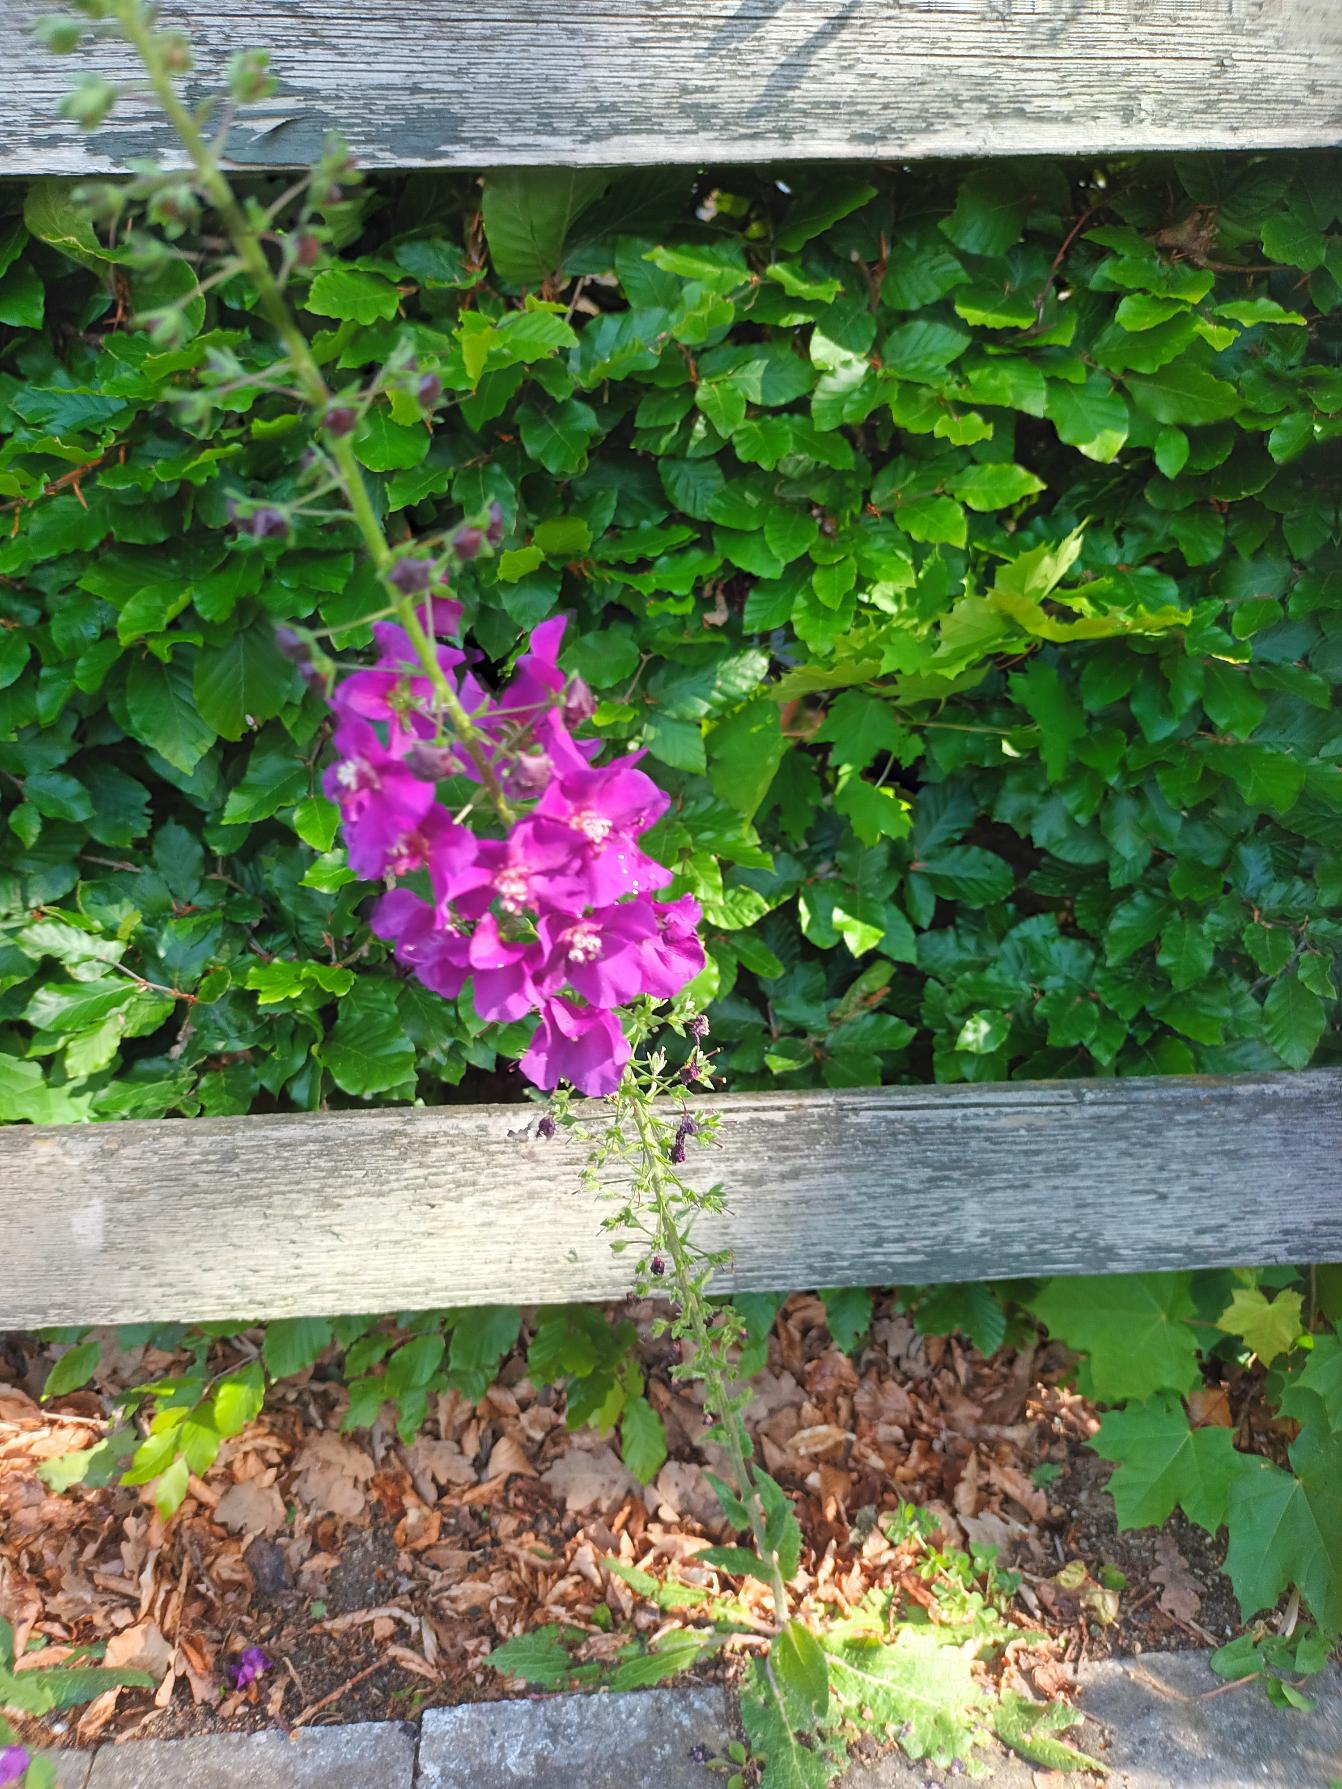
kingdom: Plantae
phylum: Tracheophyta
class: Magnoliopsida
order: Lamiales
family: Scrophulariaceae
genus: Verbascum
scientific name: Verbascum phoeniceum
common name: Purpur-kongelys
